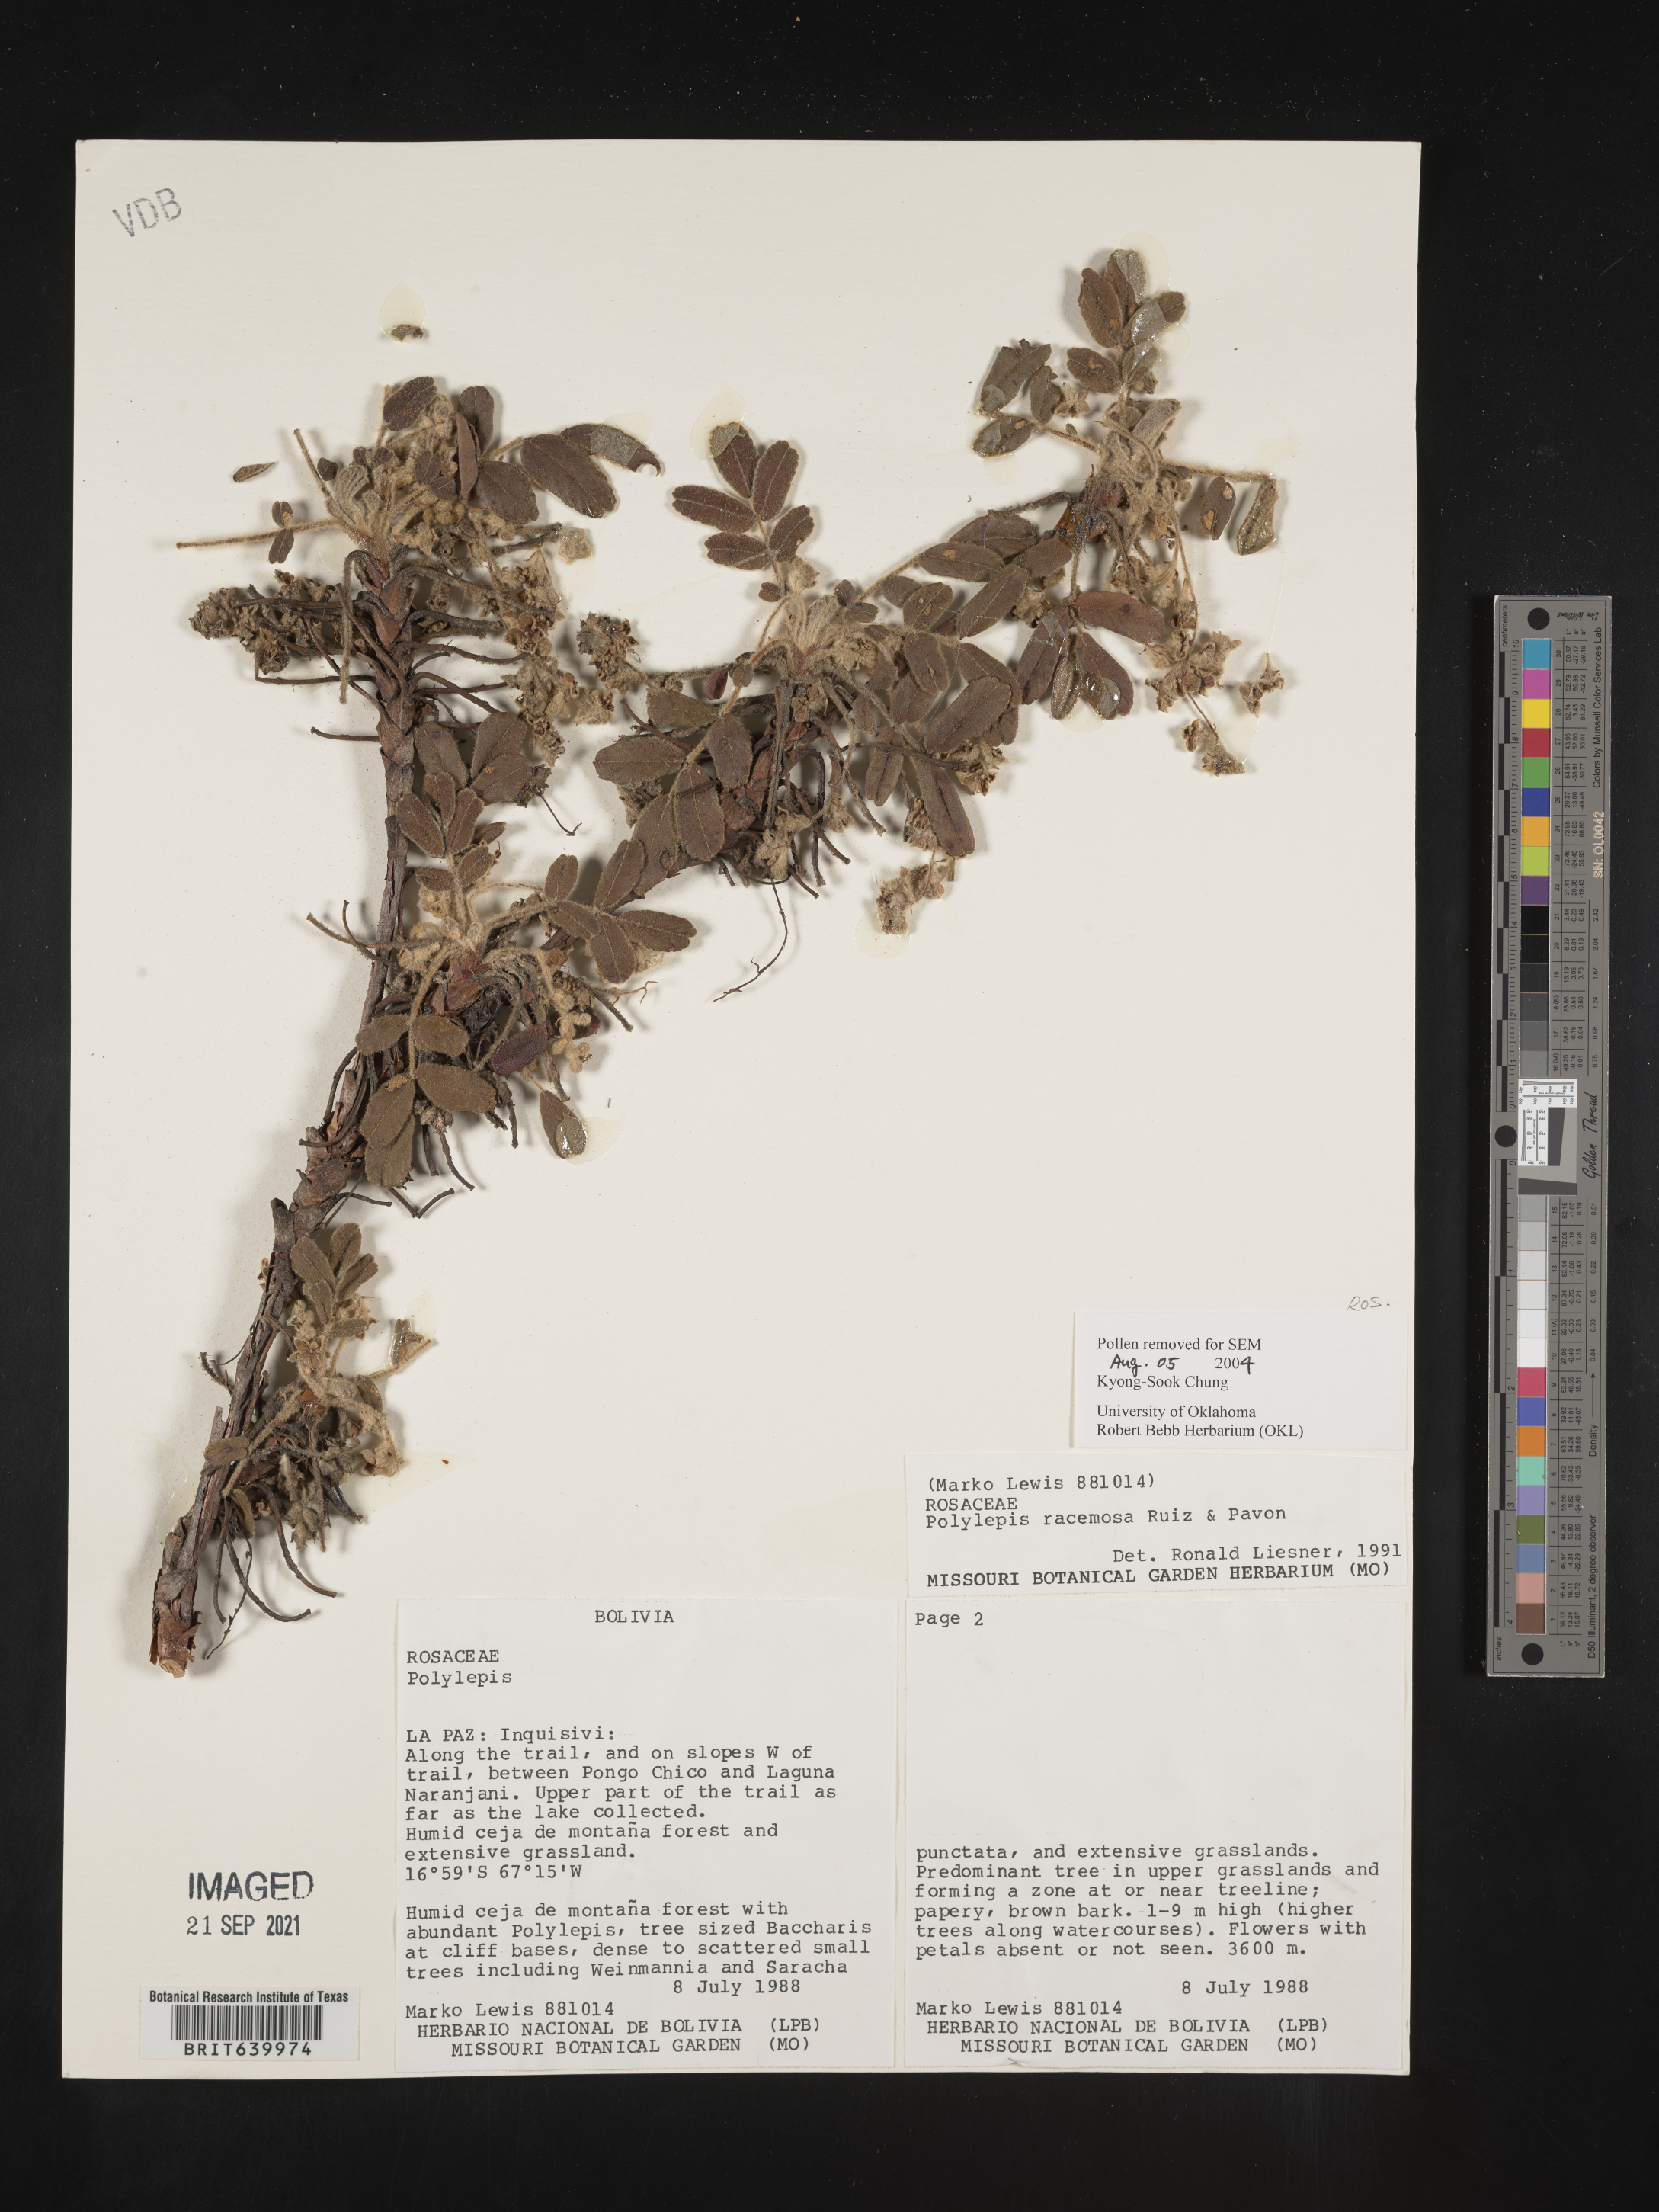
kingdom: Plantae
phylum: Tracheophyta
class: Magnoliopsida
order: Rosales
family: Rosaceae
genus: Polylepis
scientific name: Polylepis
